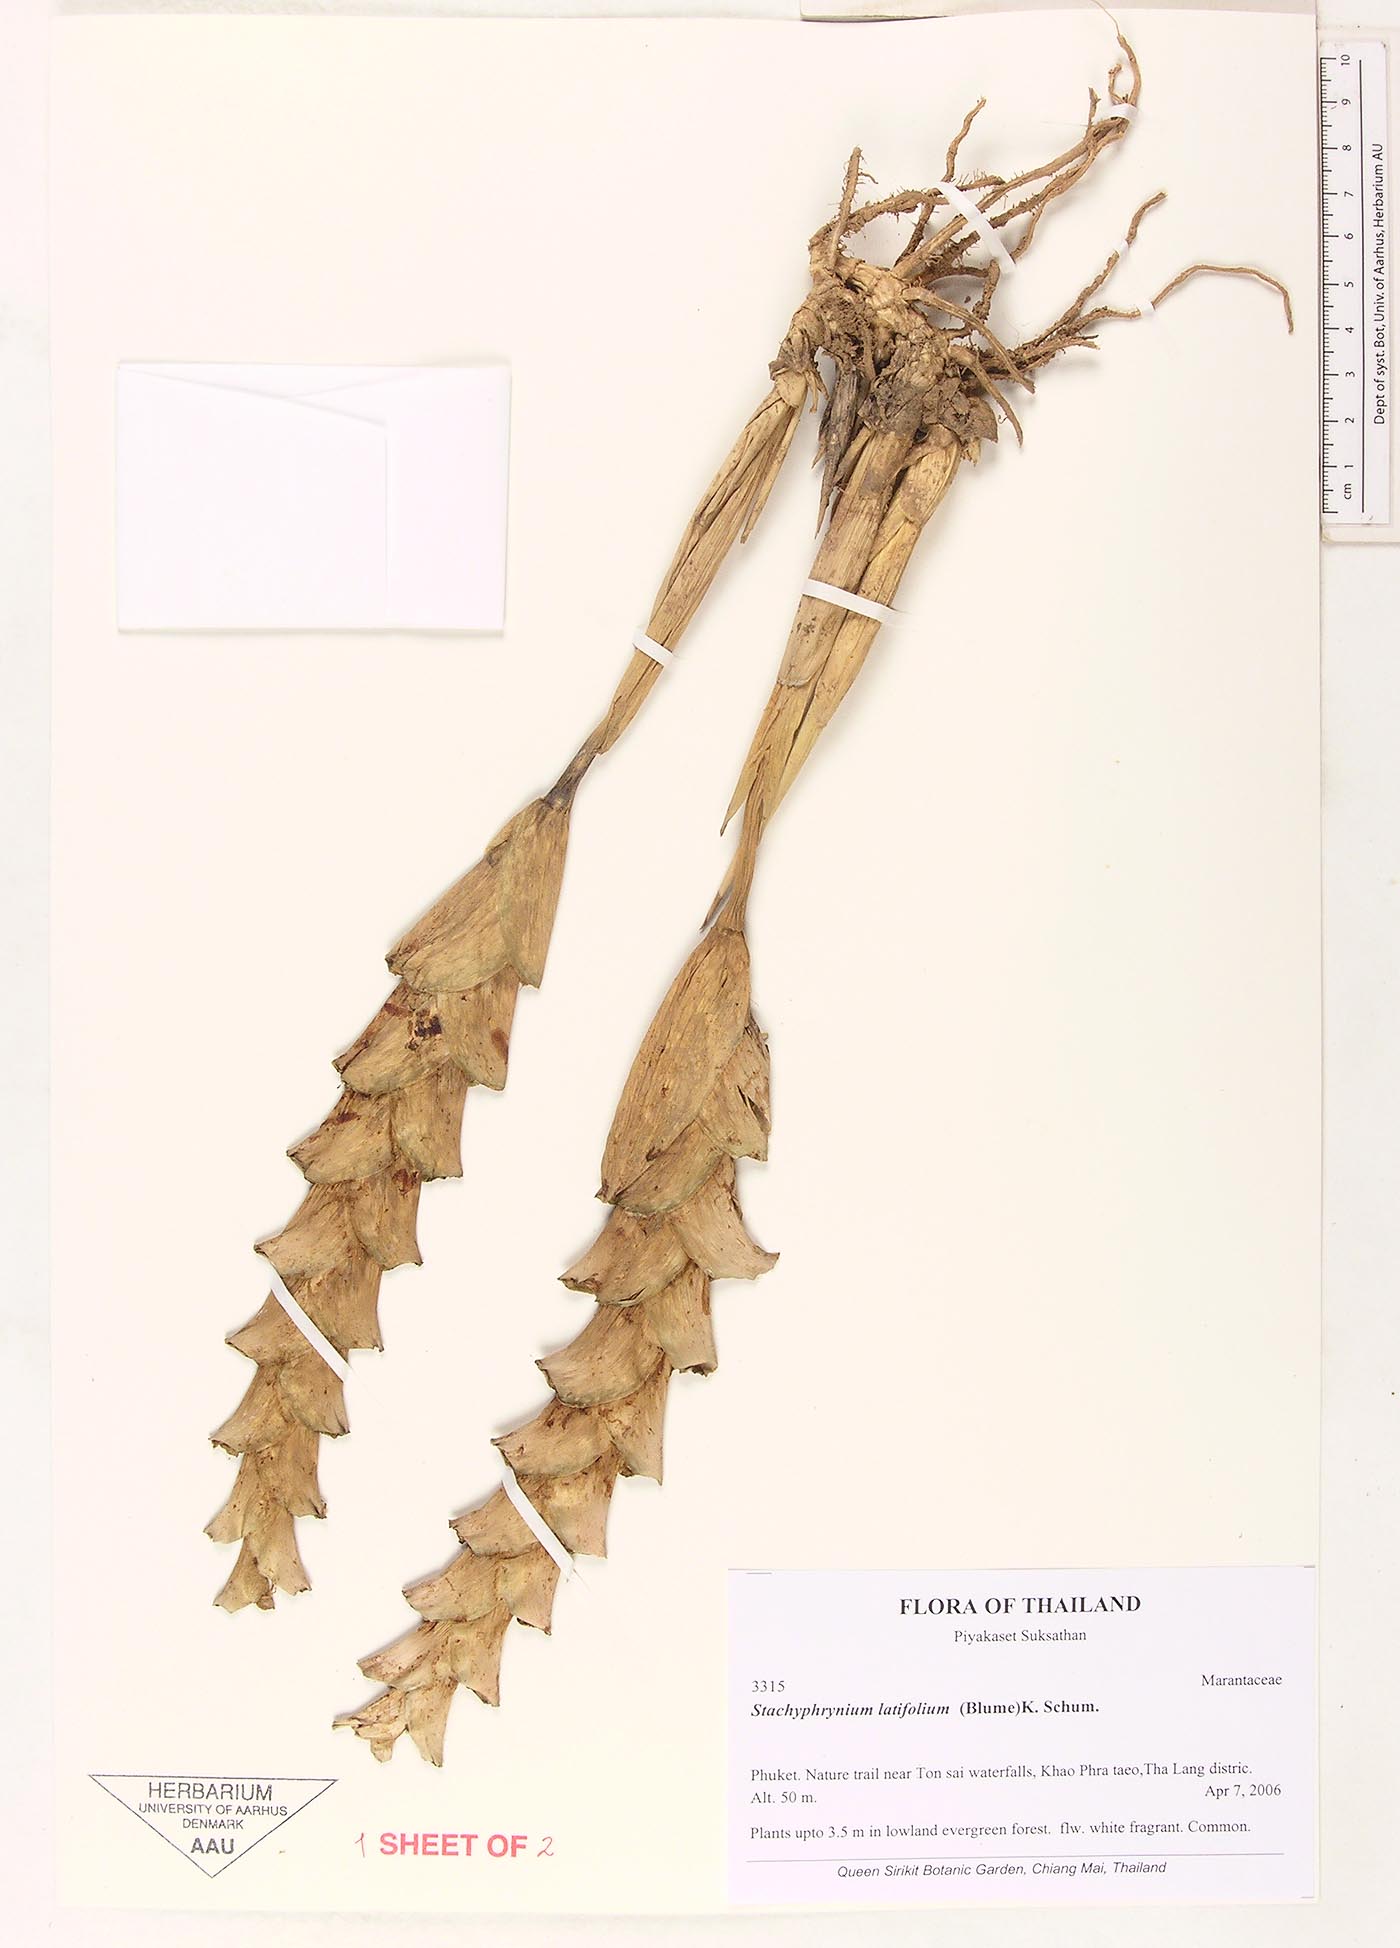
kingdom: Plantae
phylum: Tracheophyta
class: Liliopsida
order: Zingiberales
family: Marantaceae
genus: Stachyphrynium
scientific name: Stachyphrynium latifolium
